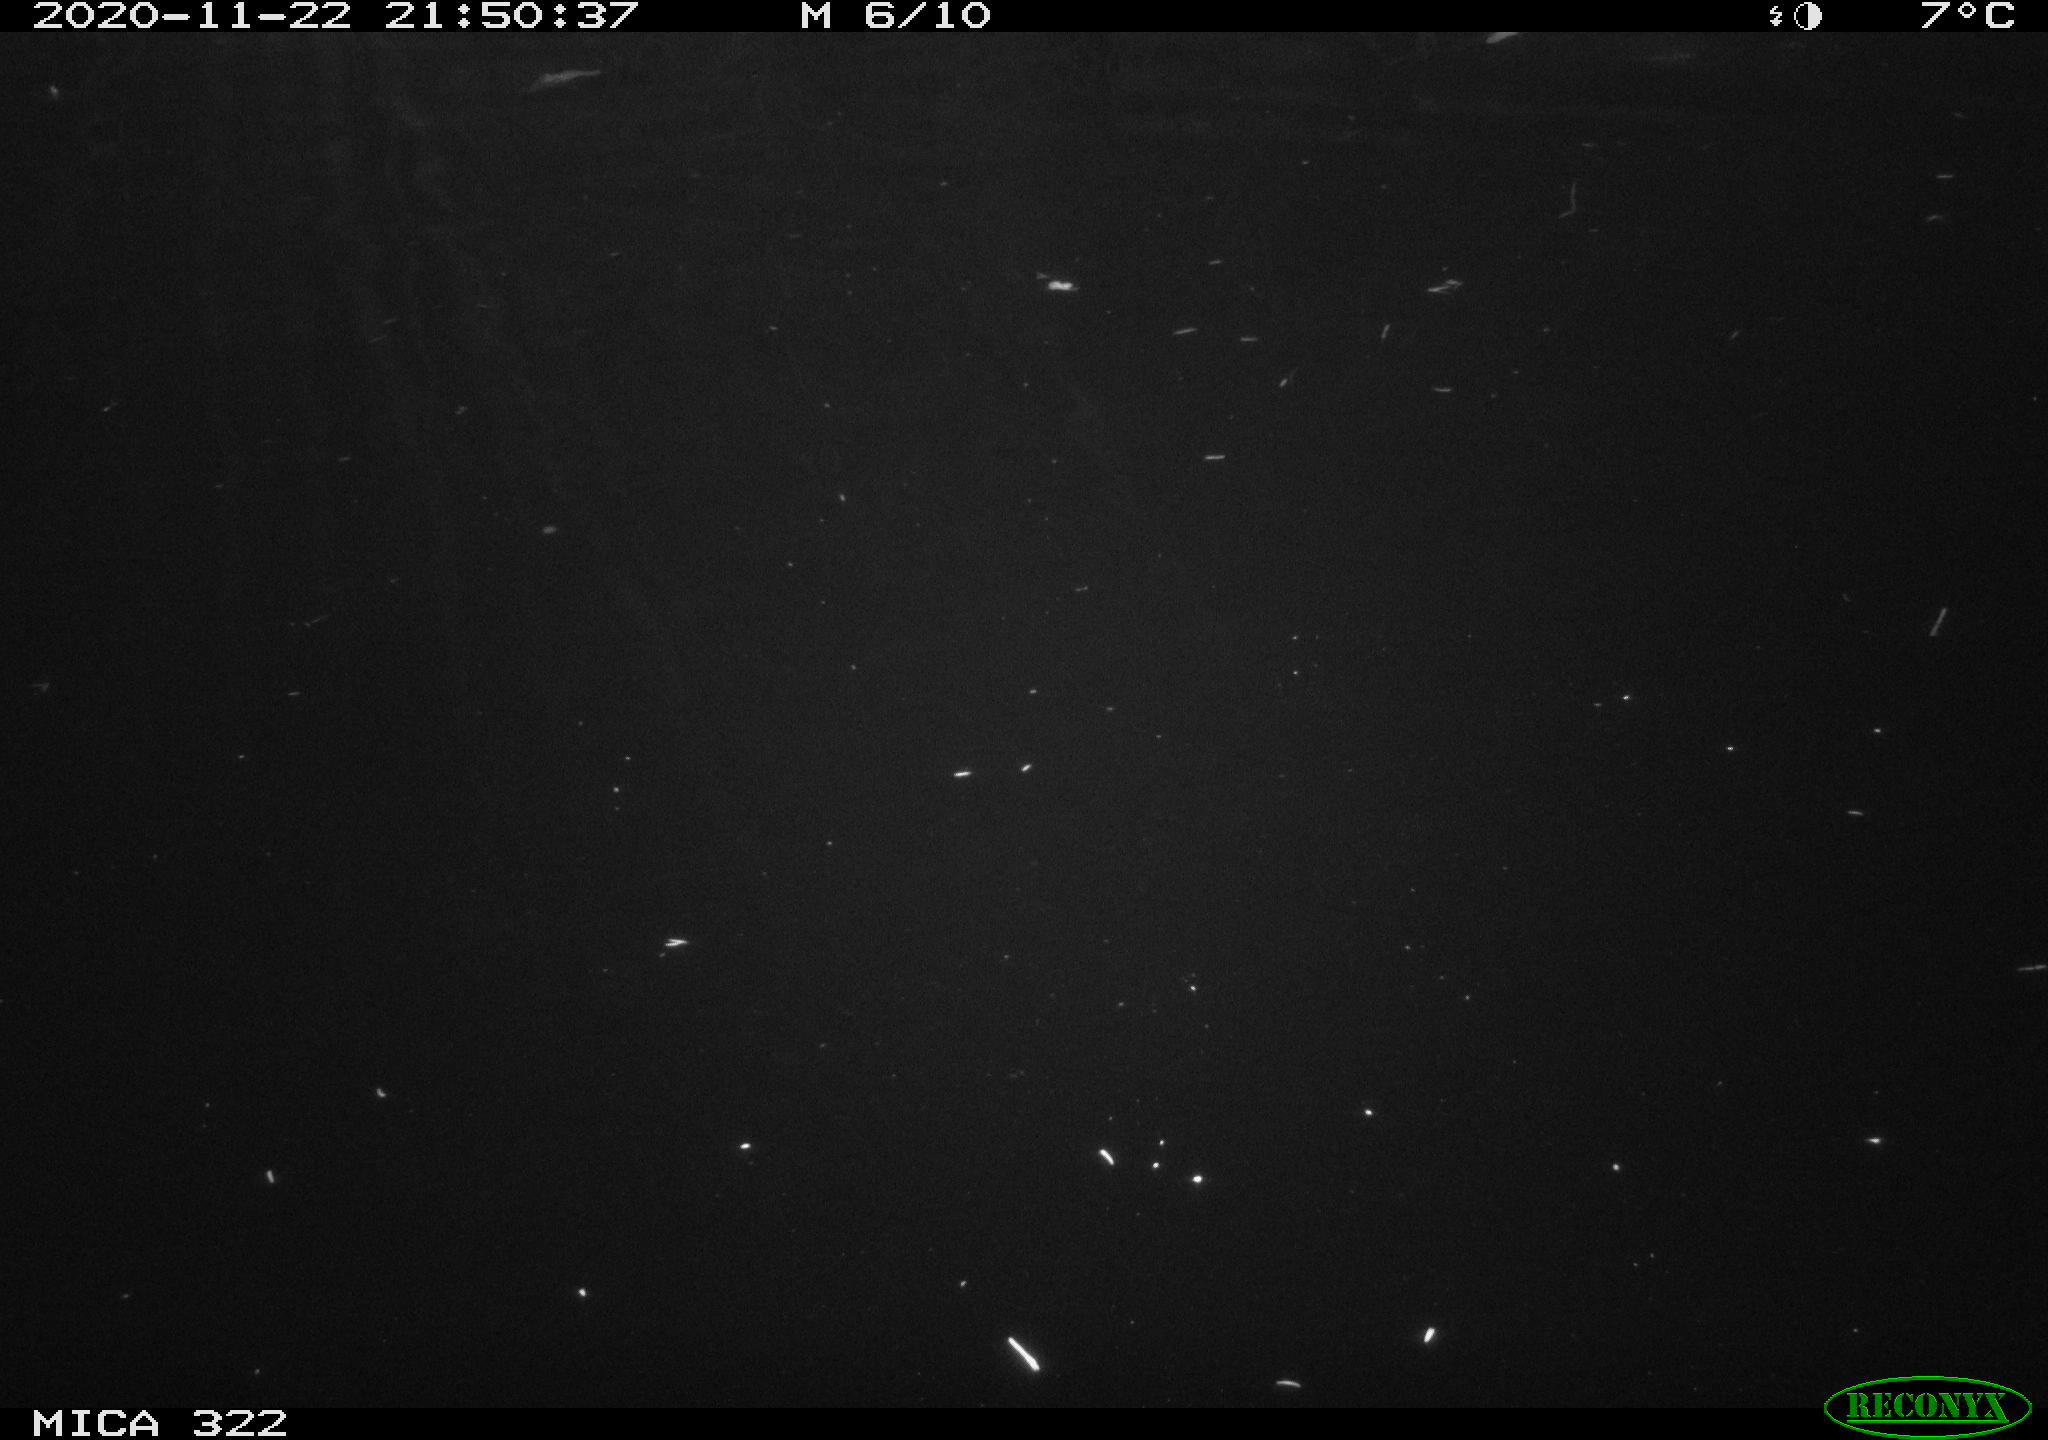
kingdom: Animalia
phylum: Chordata
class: Aves
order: Anseriformes
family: Anatidae
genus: Anas
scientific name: Anas platyrhynchos
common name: Mallard
